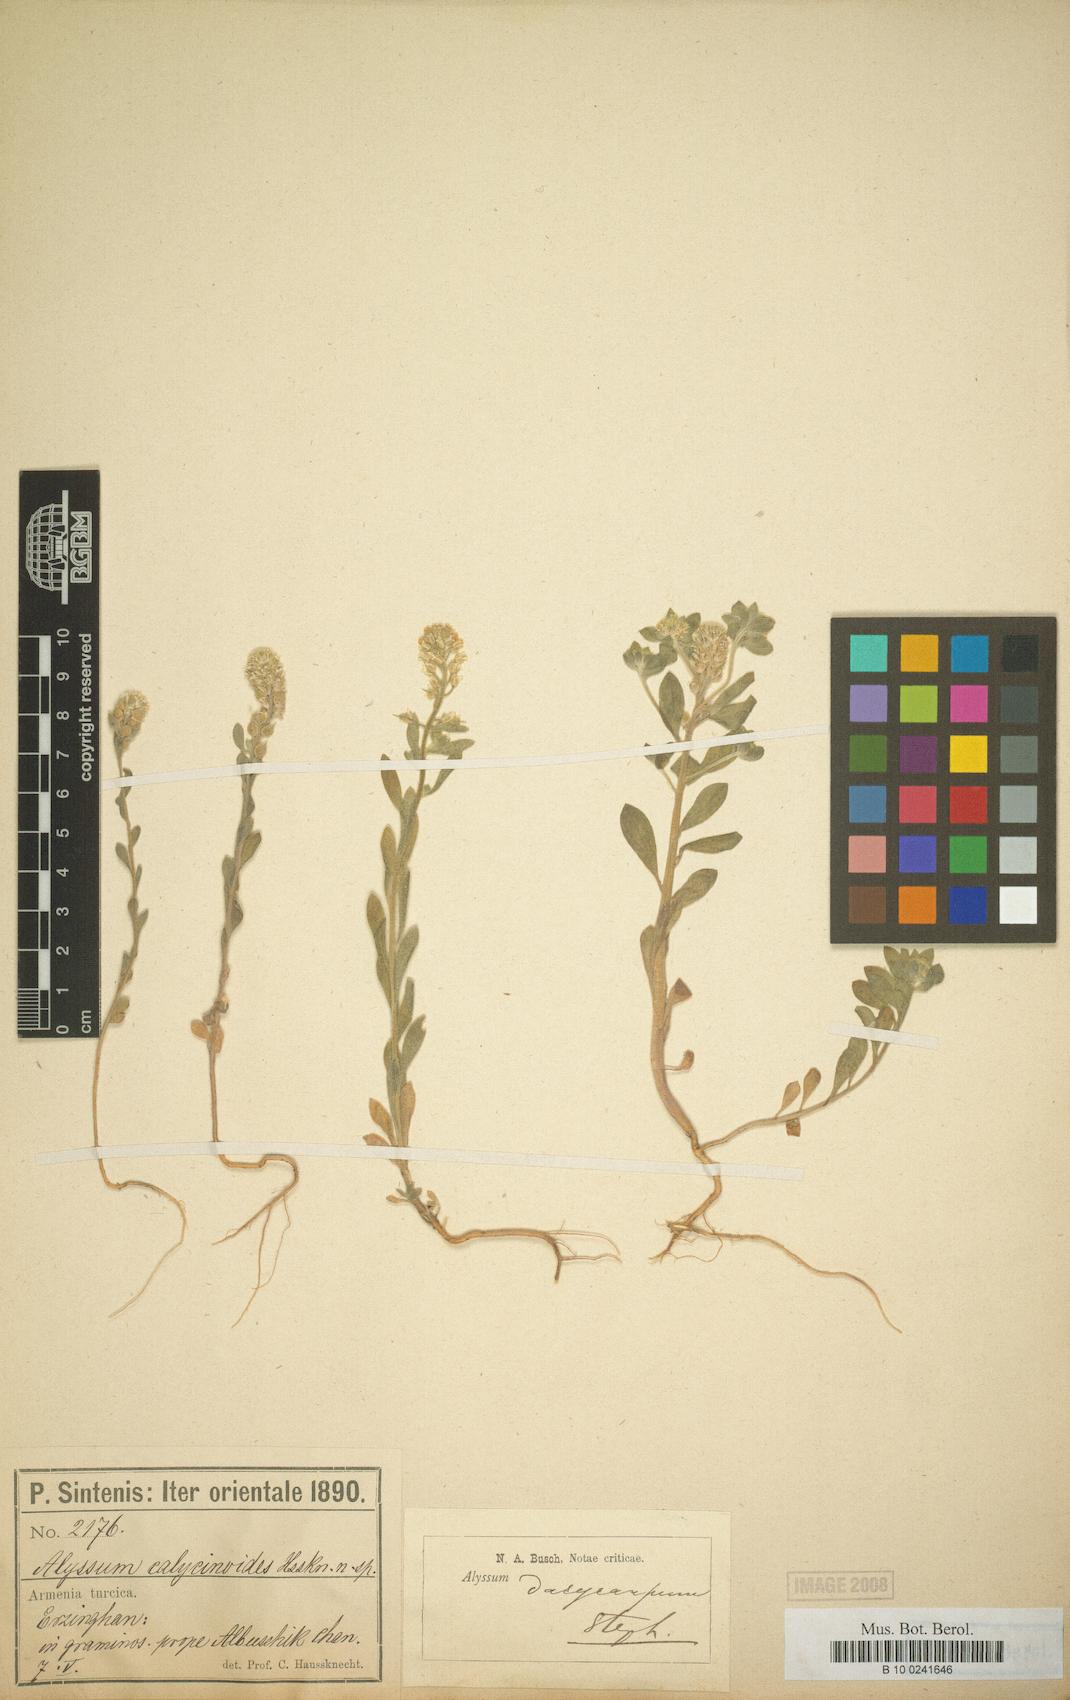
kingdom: Plantae
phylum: Tracheophyta
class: Magnoliopsida
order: Brassicales
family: Brassicaceae
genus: Alyssum
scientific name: Alyssum dasycarpum
